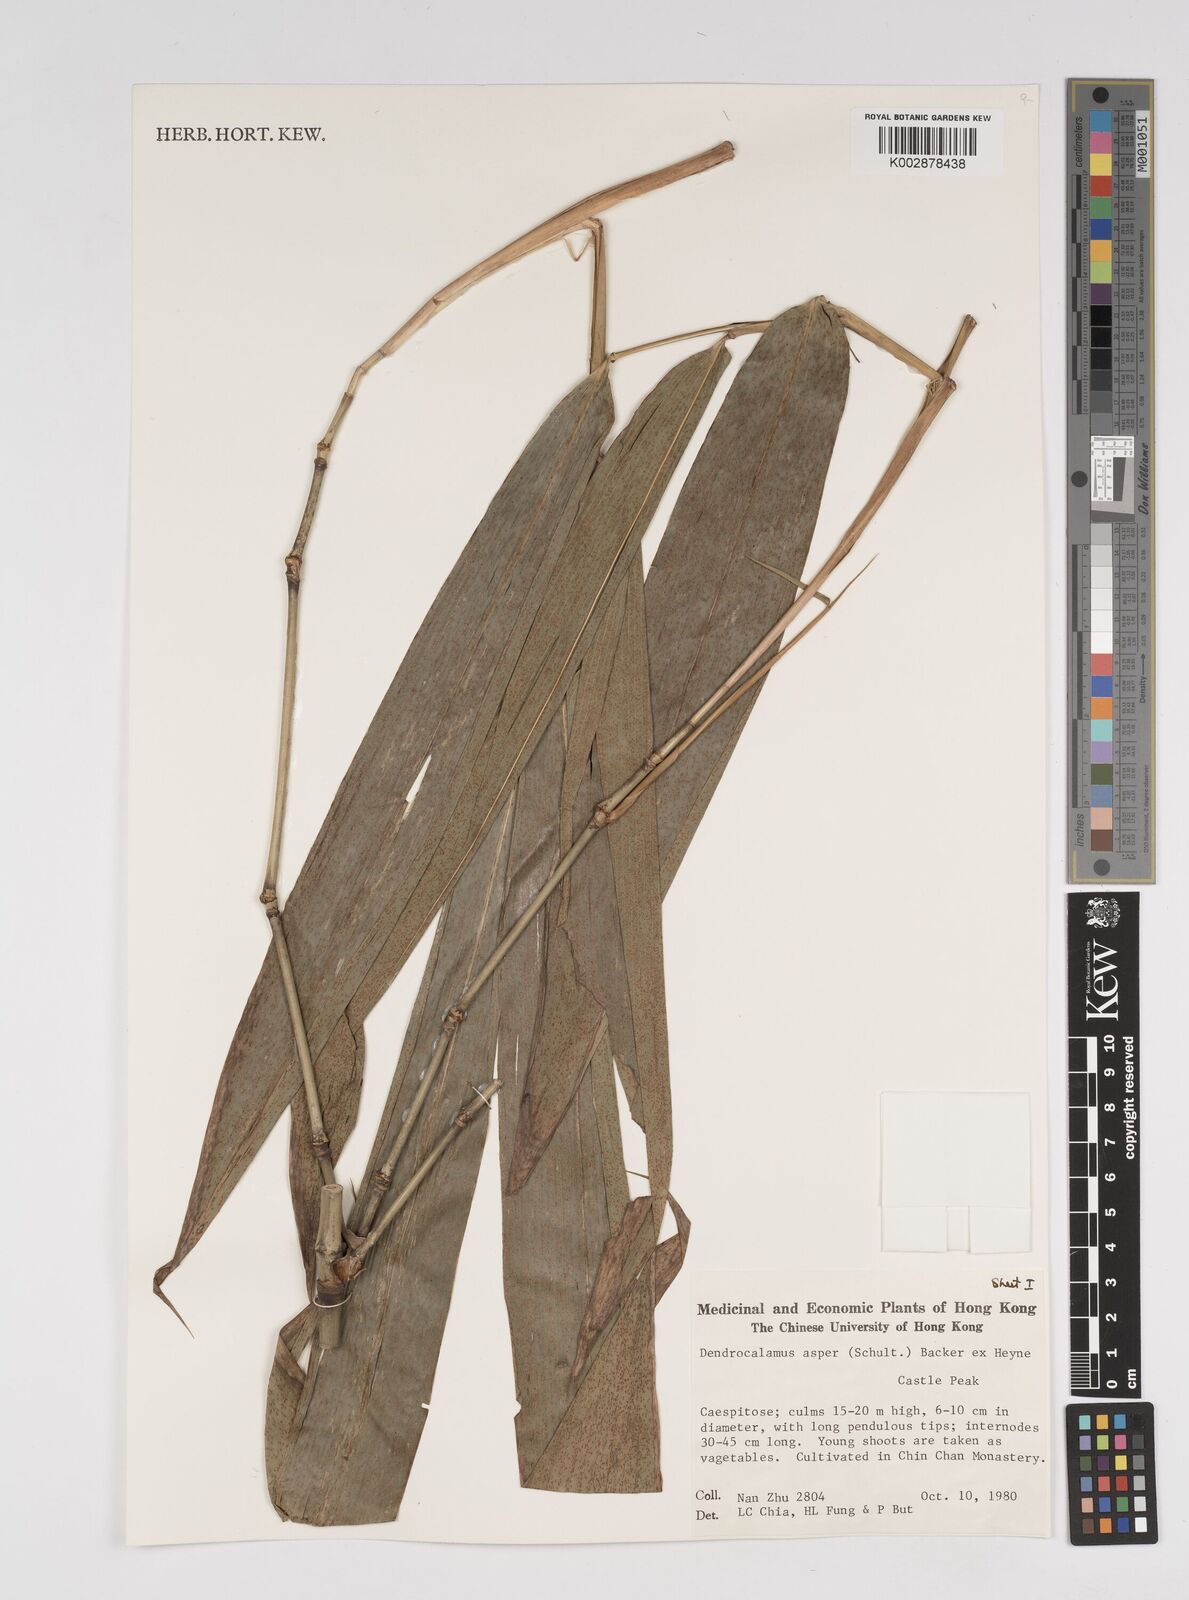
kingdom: Plantae
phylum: Tracheophyta
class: Liliopsida
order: Poales
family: Poaceae
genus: Dendrocalamus
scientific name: Dendrocalamus asper
